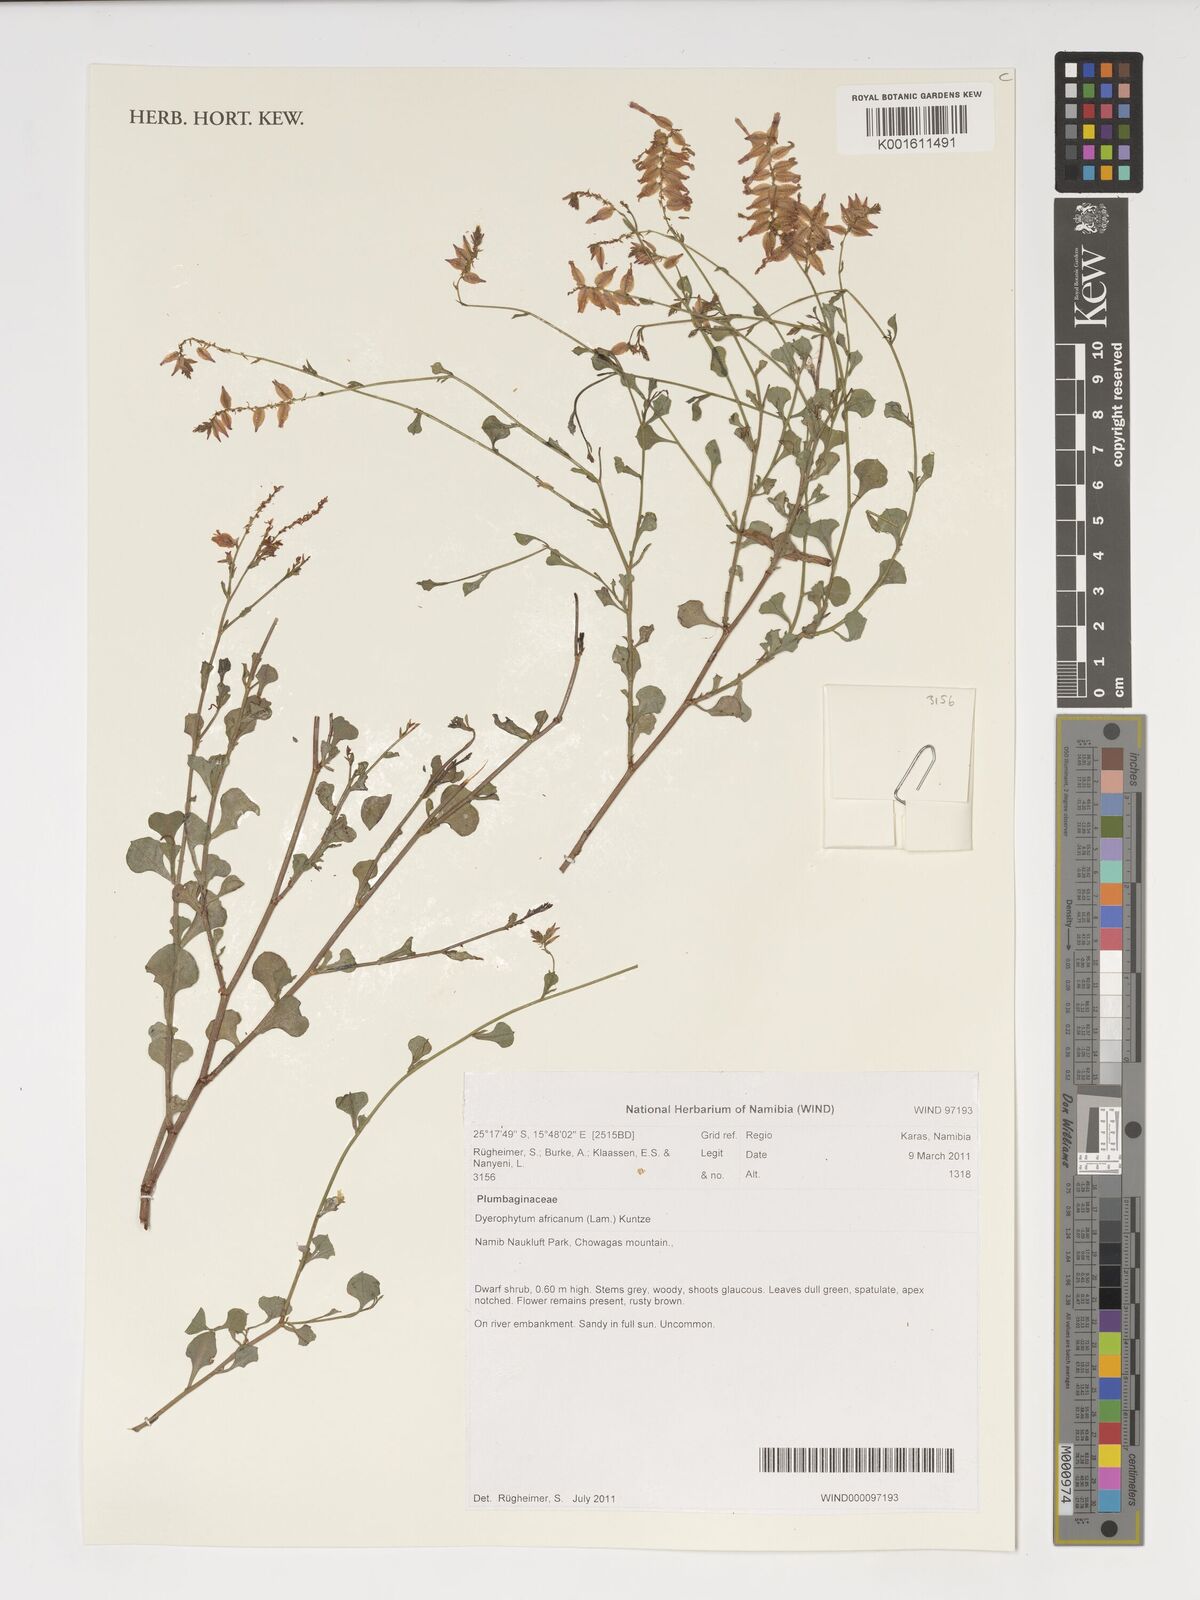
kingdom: Plantae
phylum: Tracheophyta
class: Magnoliopsida
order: Caryophyllales
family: Plumbaginaceae
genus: Dyerophytum
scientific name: Dyerophytum africanum
